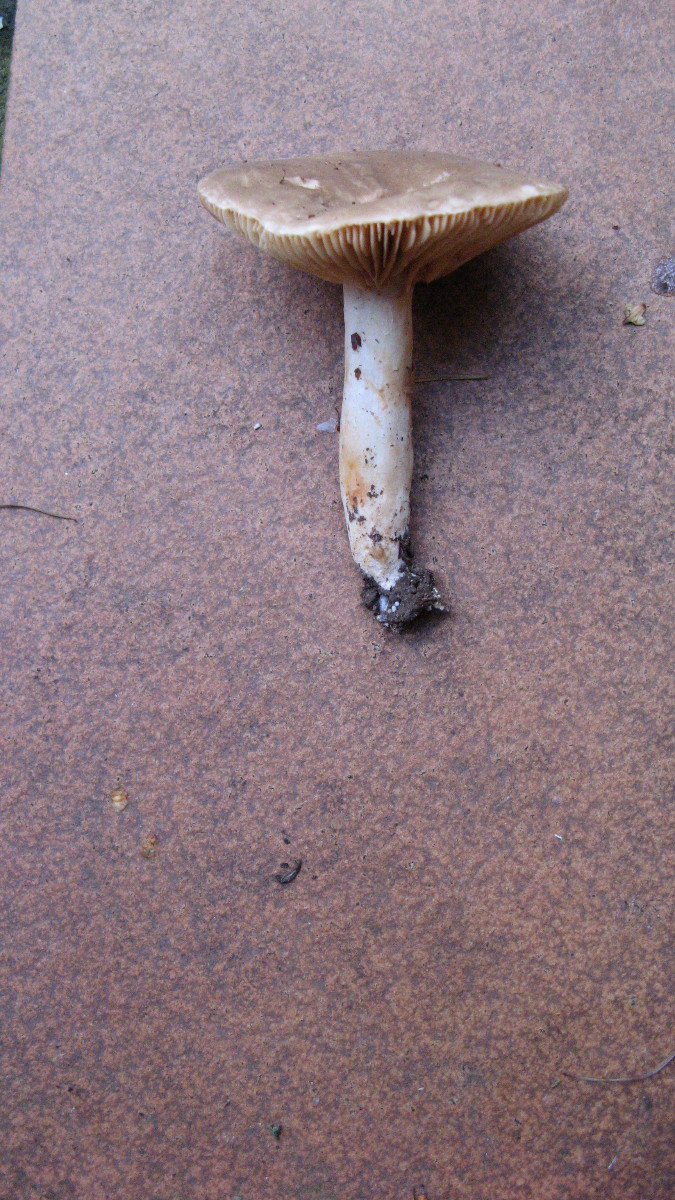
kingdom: Fungi
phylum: Basidiomycota
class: Agaricomycetes
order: Russulales
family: Russulaceae
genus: Lactarius
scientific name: Lactarius
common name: mælkehat
